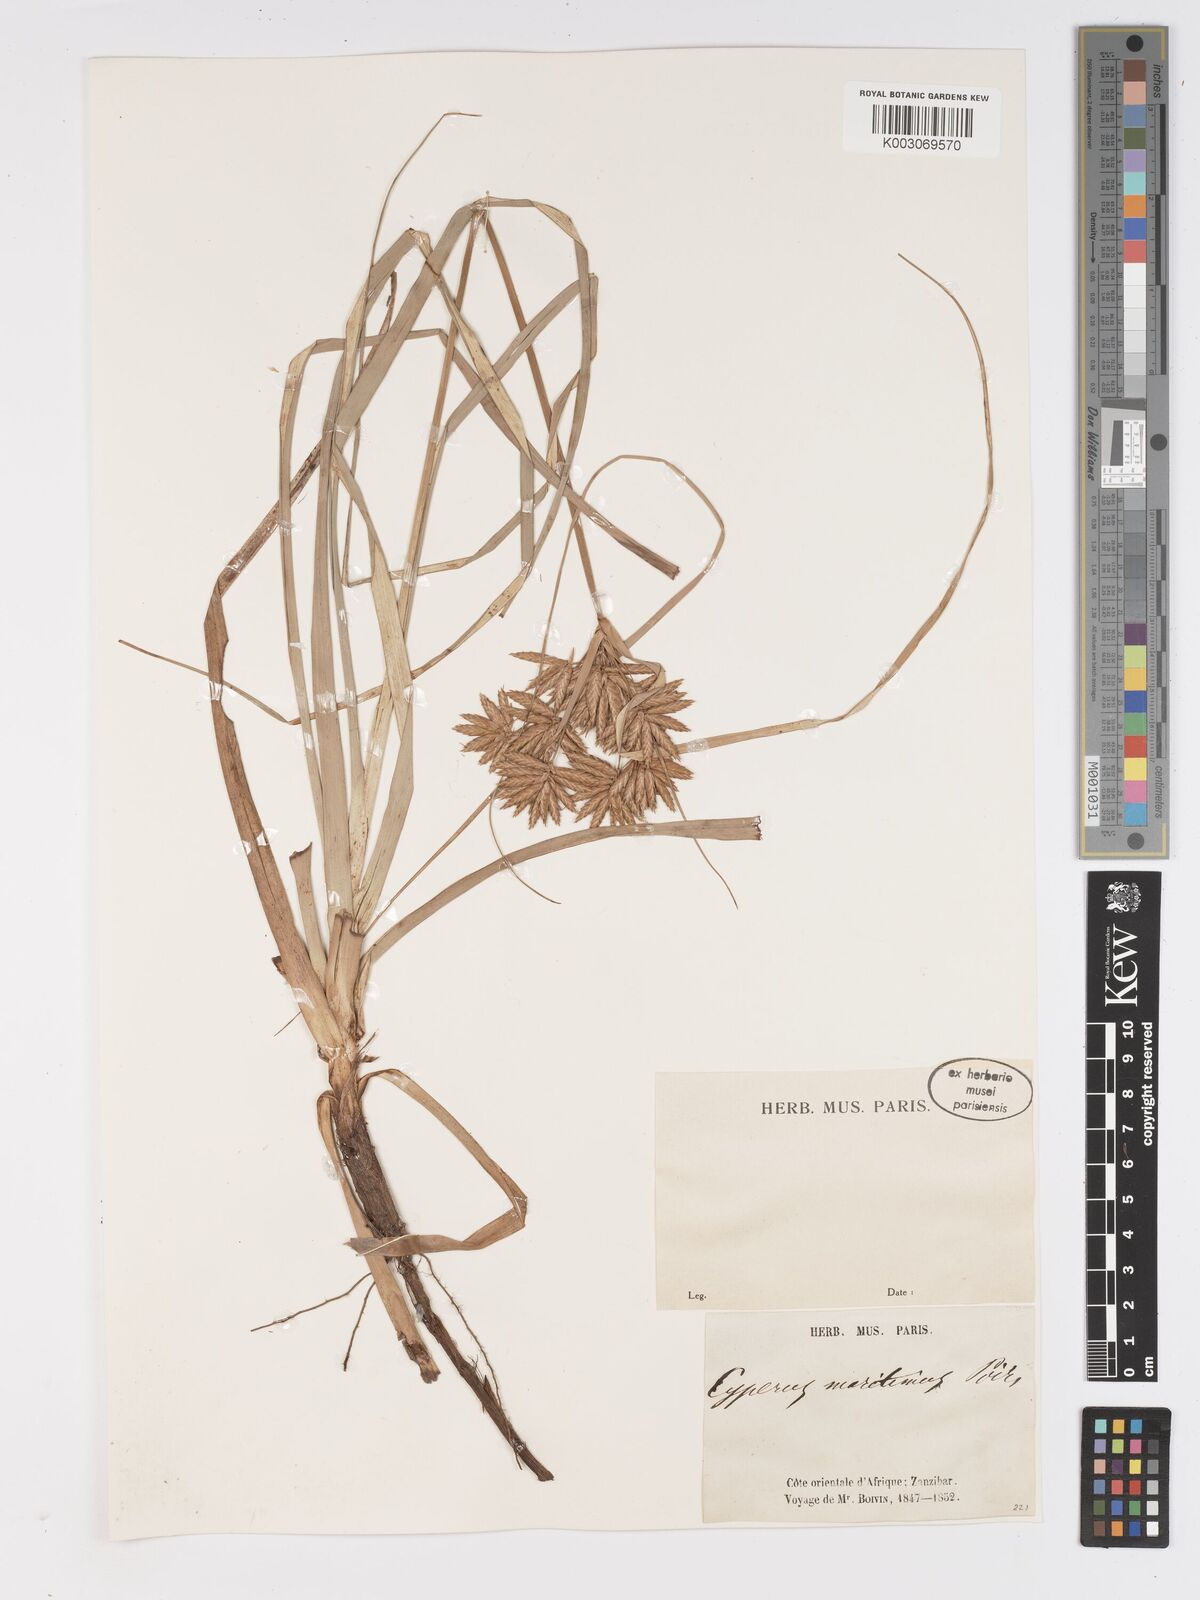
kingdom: Plantae
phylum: Tracheophyta
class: Liliopsida
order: Poales
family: Cyperaceae
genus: Cyperus
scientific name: Cyperus crassipes
